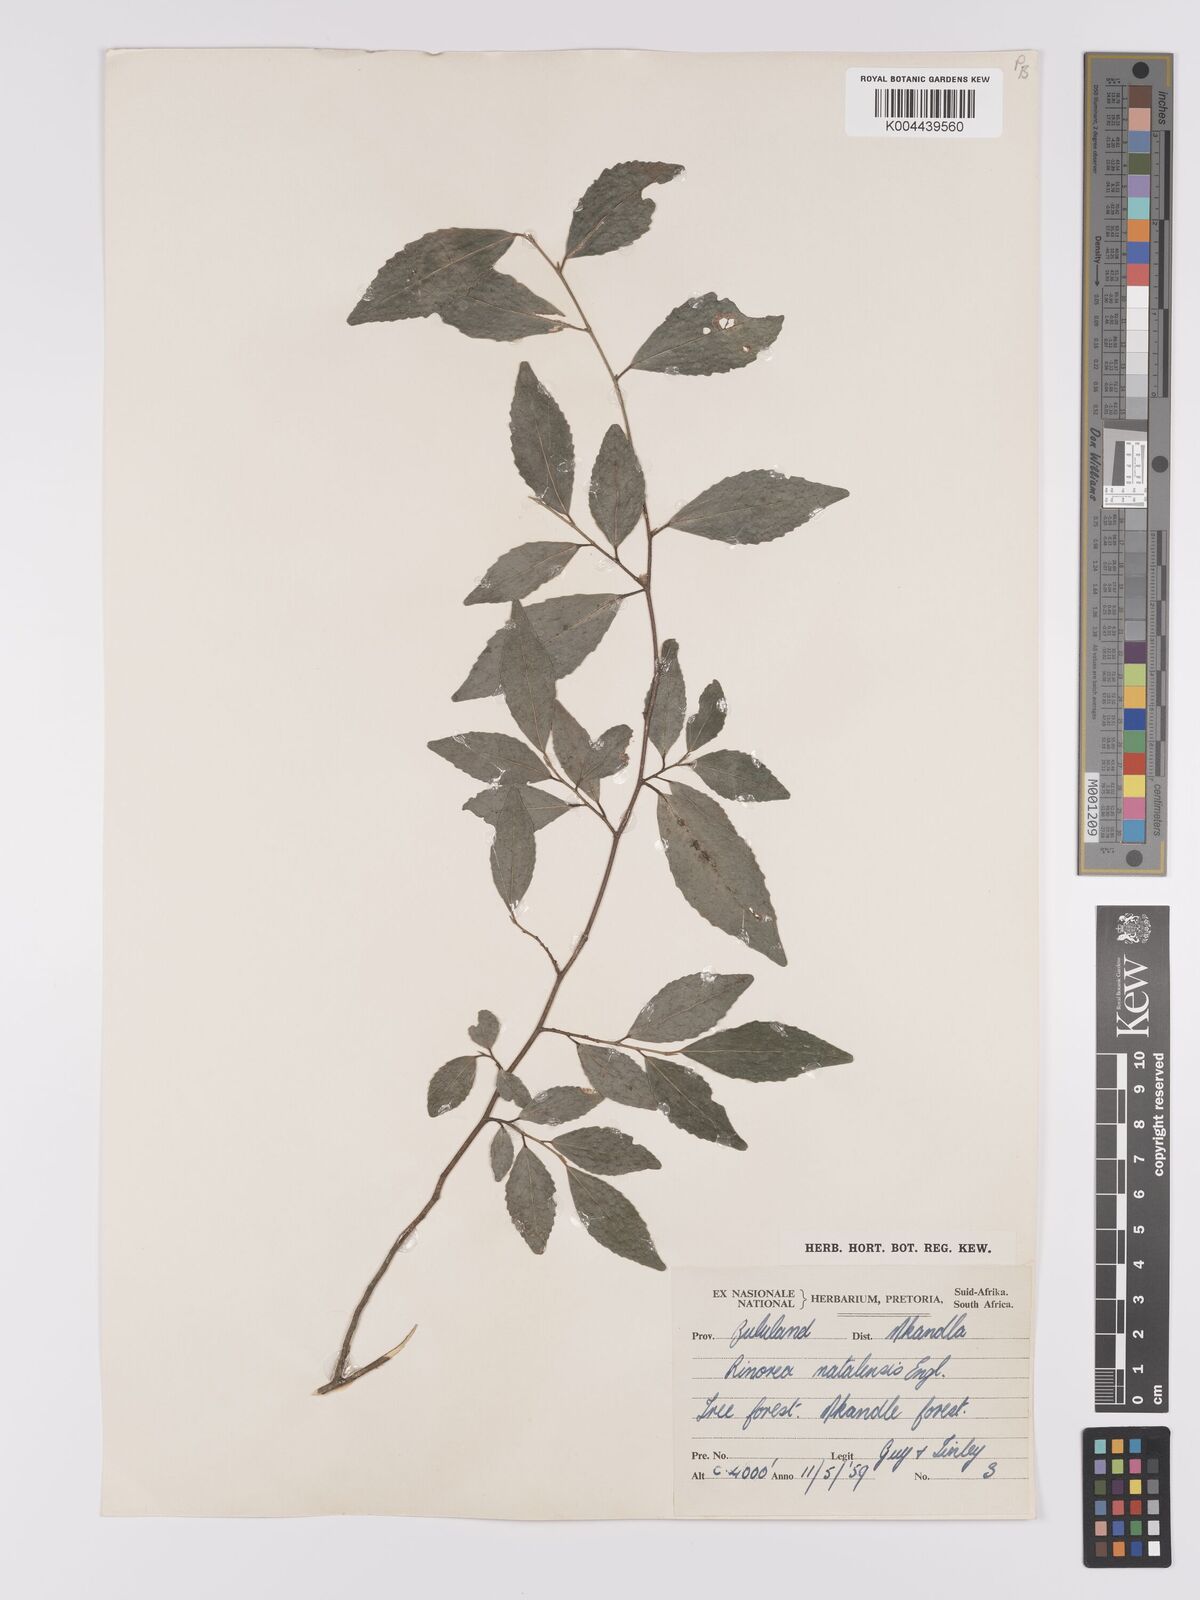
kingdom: Plantae
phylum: Tracheophyta
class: Magnoliopsida
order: Malpighiales
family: Violaceae
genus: Rinorea
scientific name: Rinorea angustifolia
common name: White violet-bush
